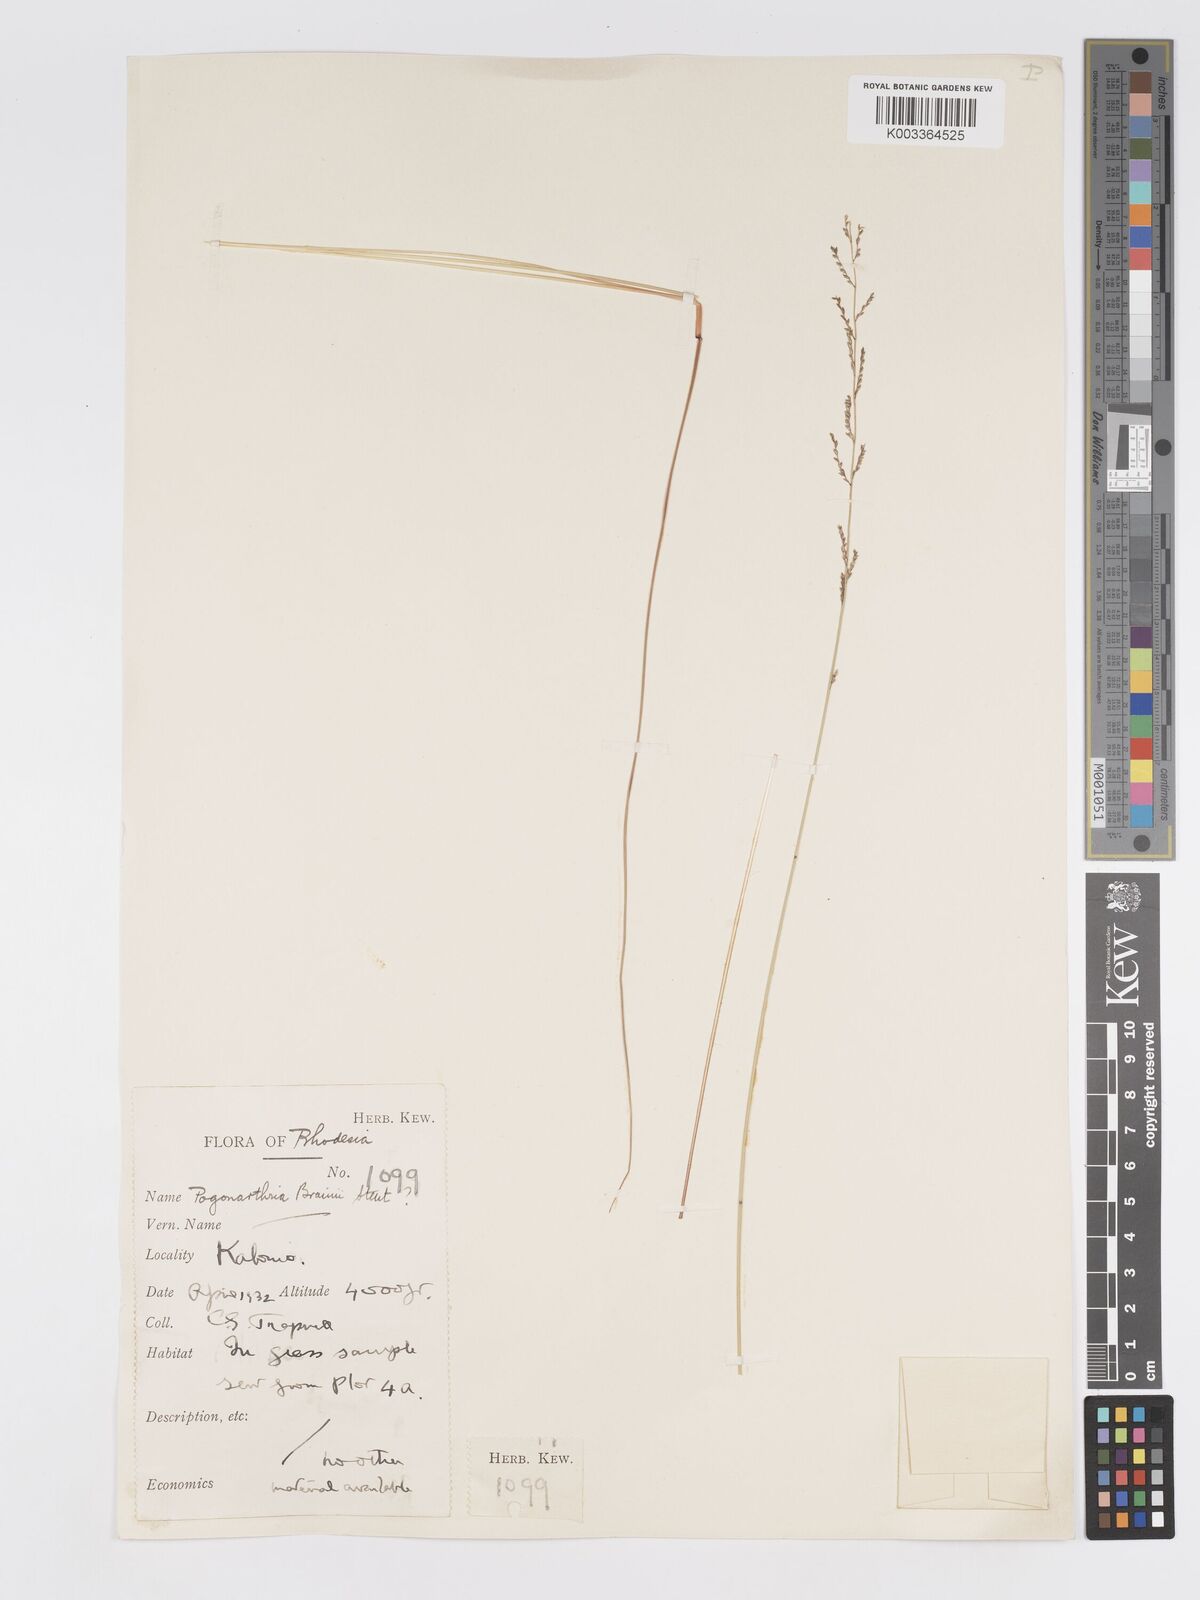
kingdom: Plantae
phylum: Tracheophyta
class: Liliopsida
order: Poales
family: Poaceae
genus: Eragrostis
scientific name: Eragrostis brainii
